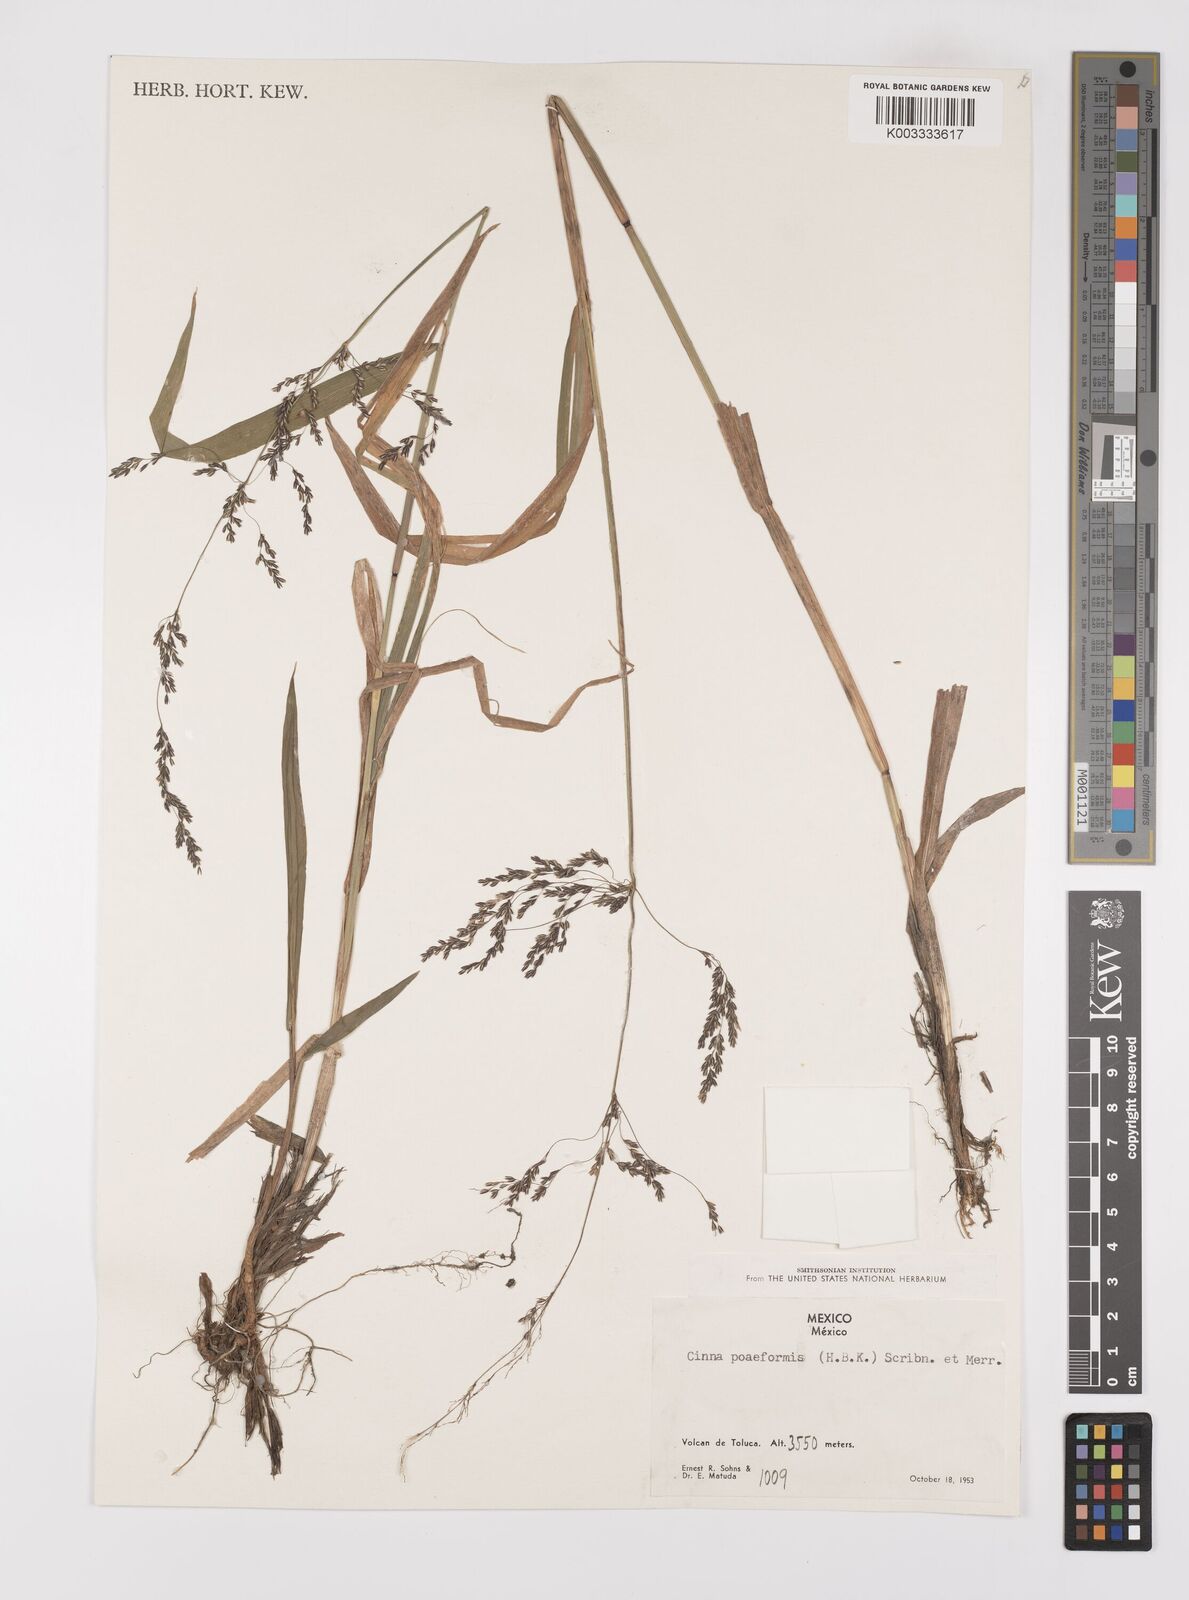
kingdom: Plantae
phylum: Tracheophyta
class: Liliopsida
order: Poales
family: Poaceae
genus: Cinnastrum
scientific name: Cinnastrum poiforme
